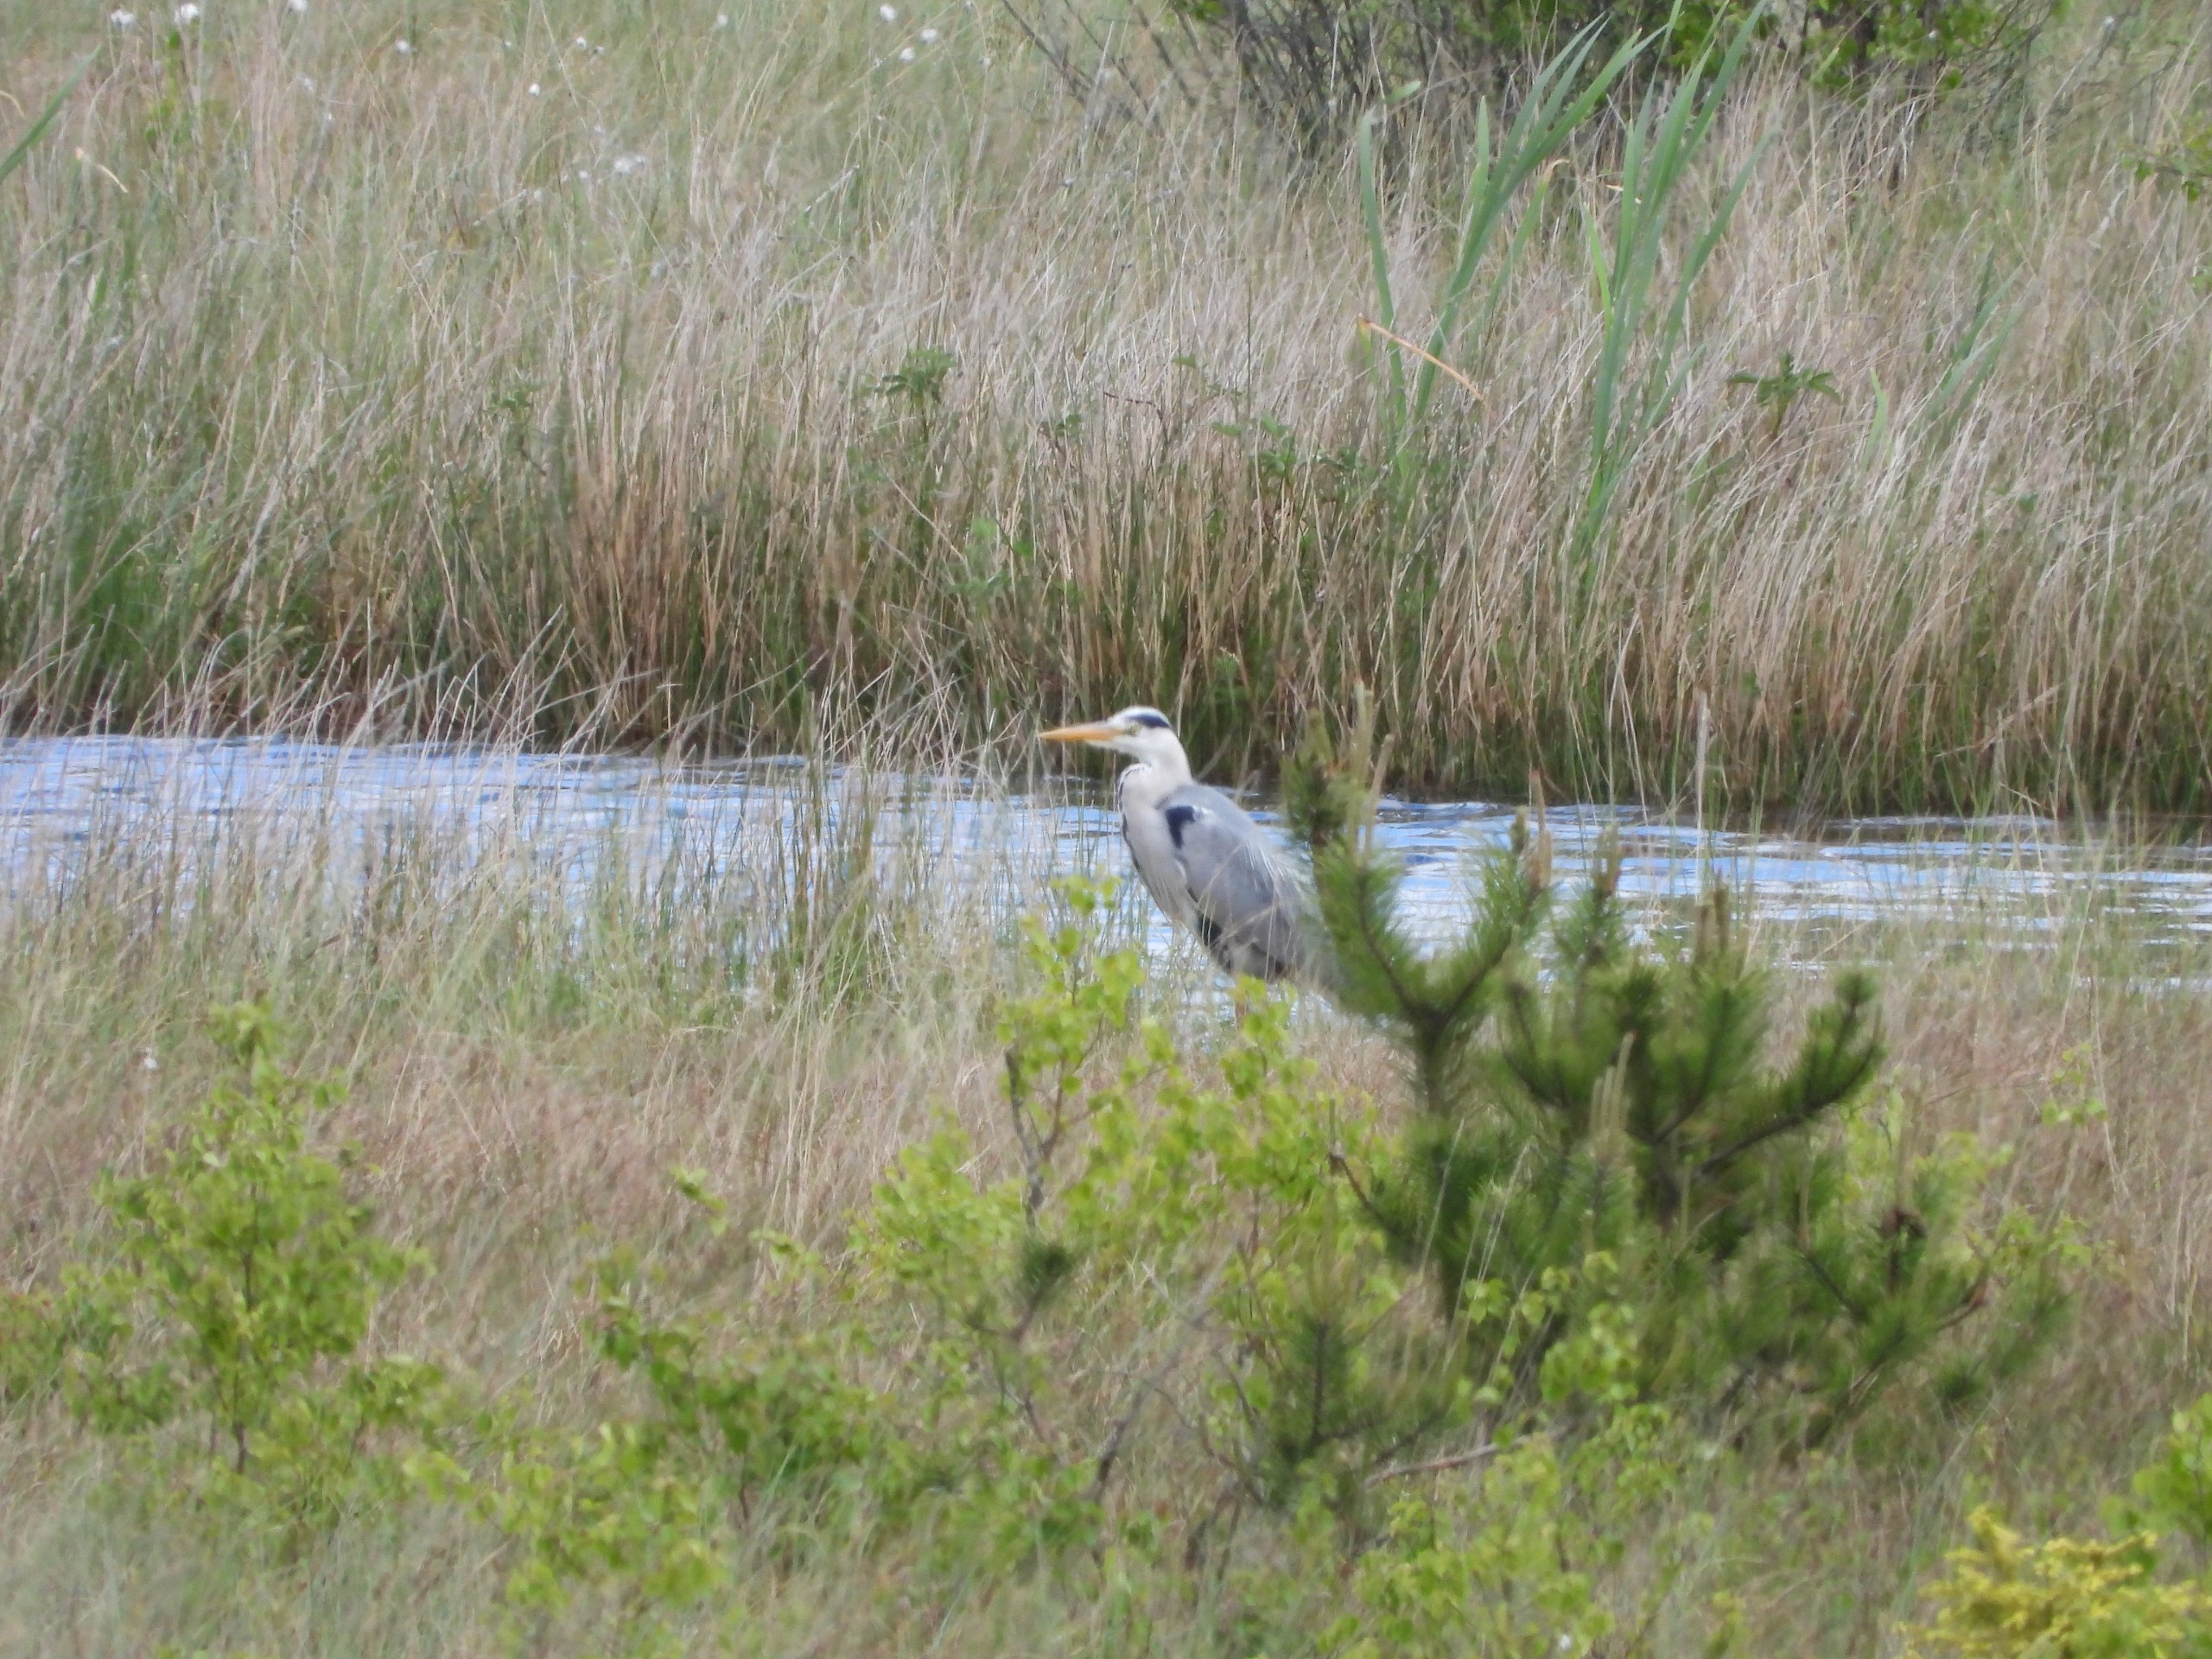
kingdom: Animalia
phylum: Chordata
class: Aves
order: Pelecaniformes
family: Ardeidae
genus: Ardea
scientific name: Ardea cinerea
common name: Fiskehejre
